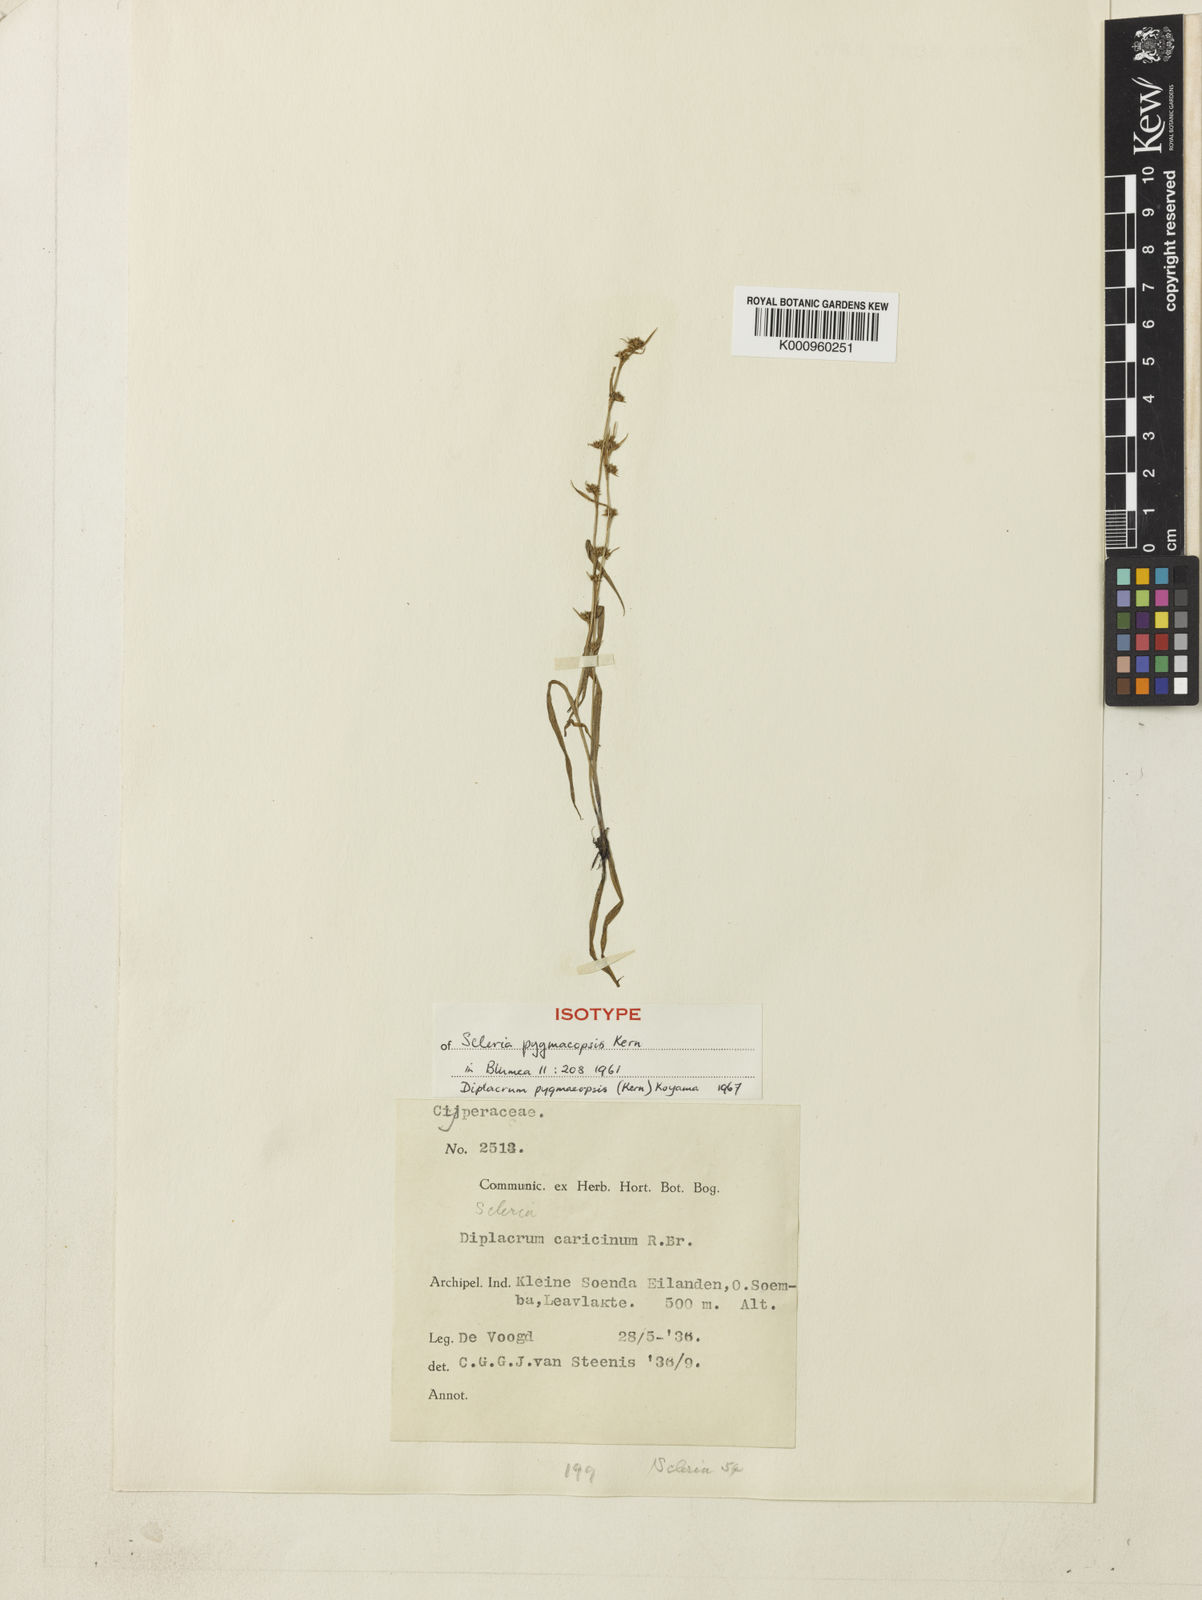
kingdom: Plantae
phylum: Tracheophyta
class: Liliopsida
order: Poales
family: Cyperaceae
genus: Diplacrum
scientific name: Diplacrum pygmaeopsis
